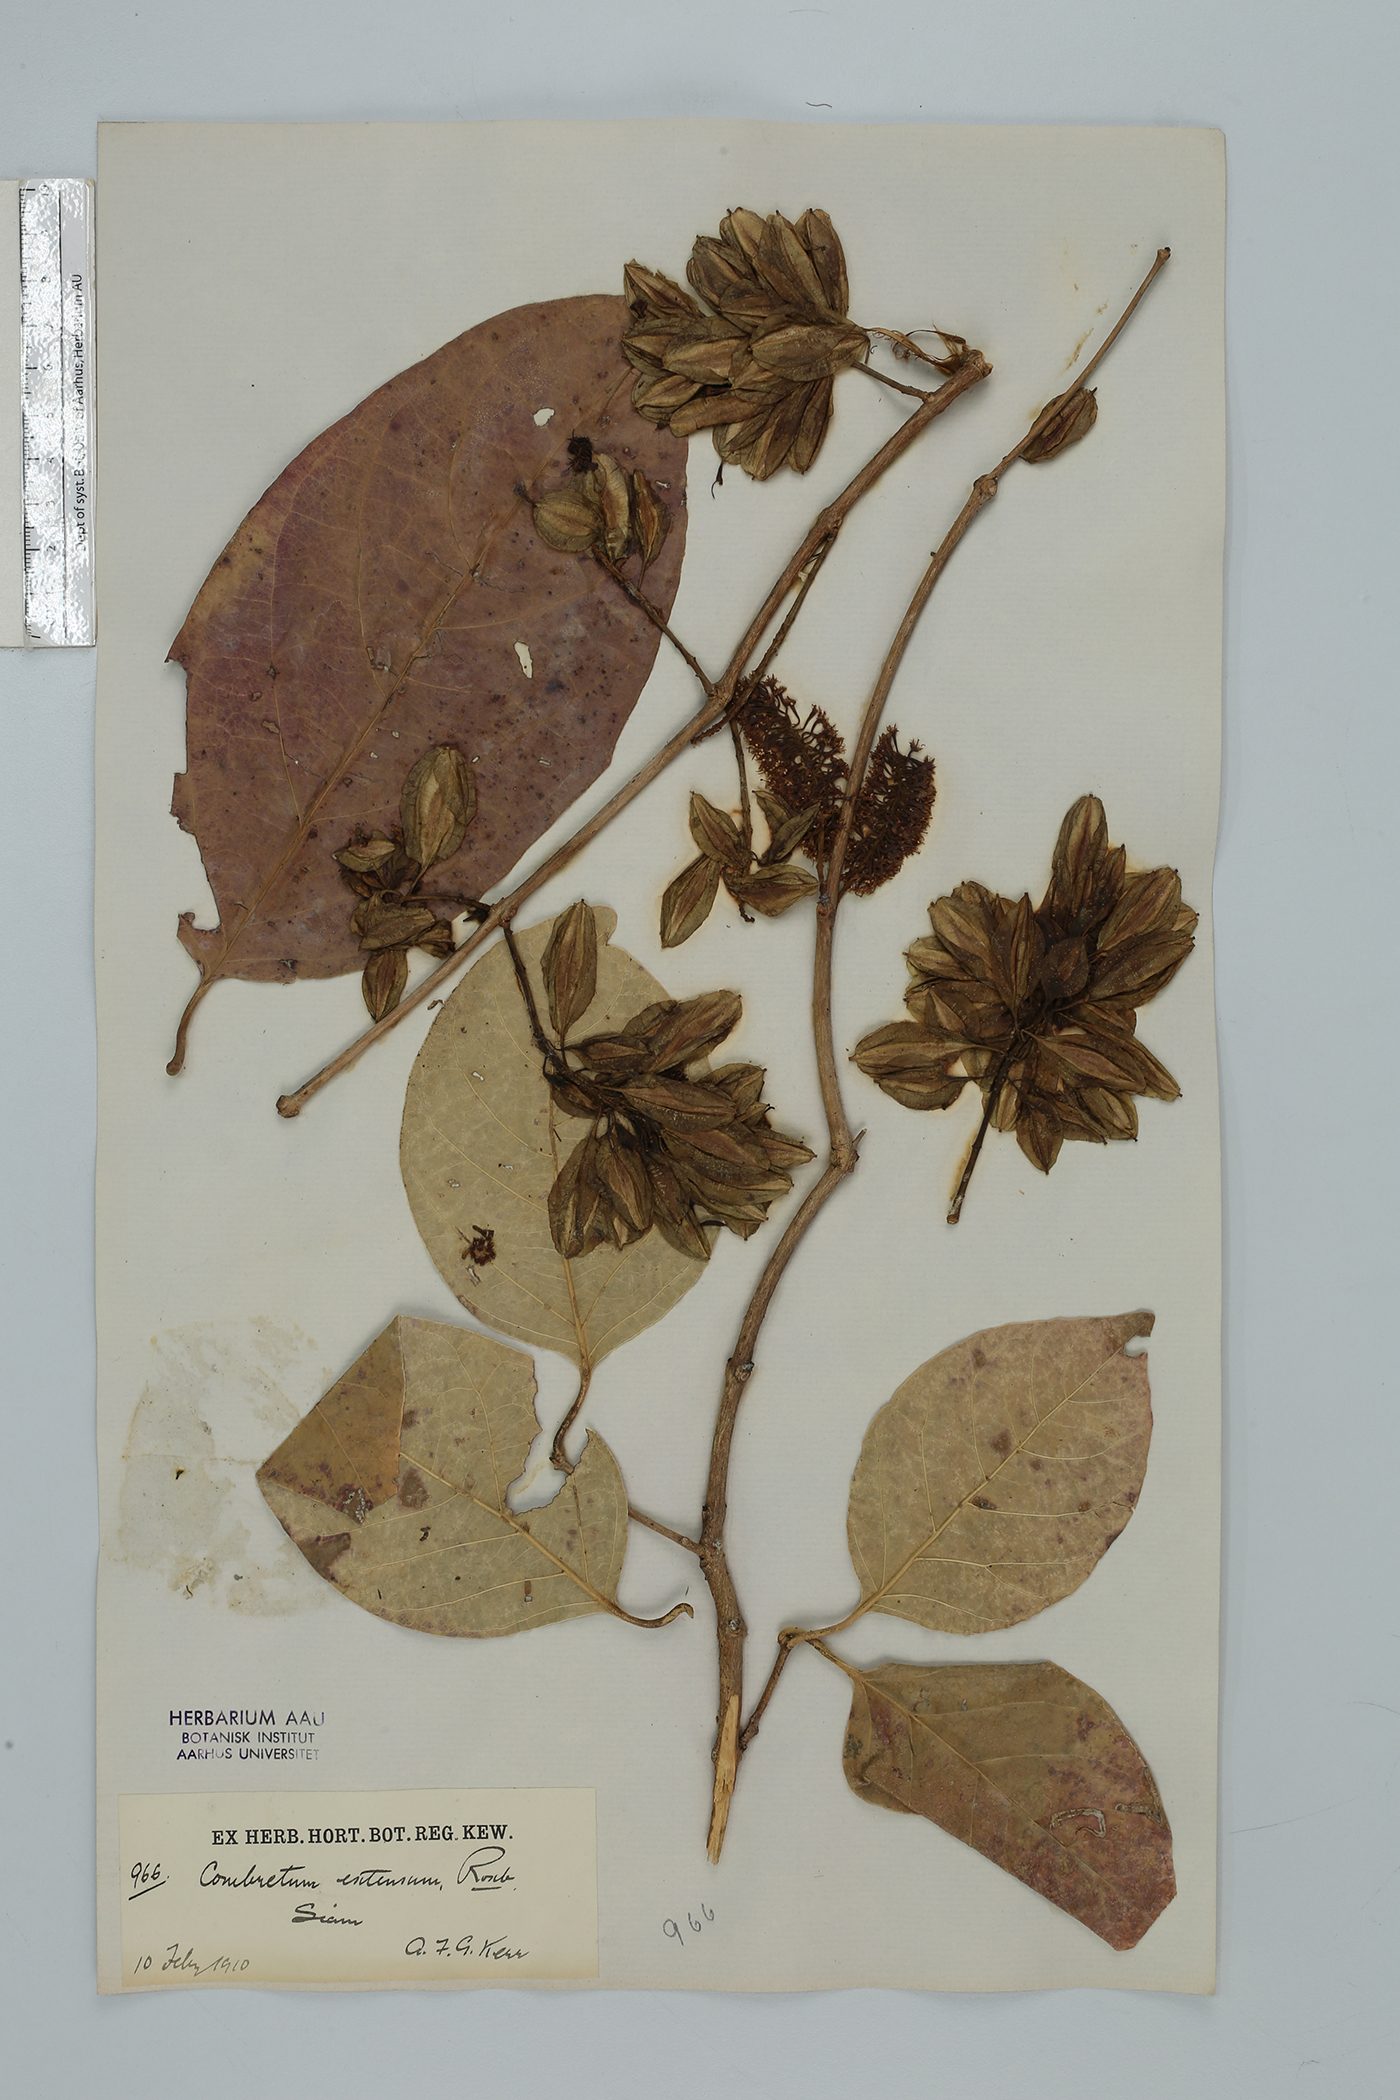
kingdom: Plantae
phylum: Tracheophyta
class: Magnoliopsida
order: Myrtales
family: Combretaceae
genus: Combretum
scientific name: Combretum latifolium
